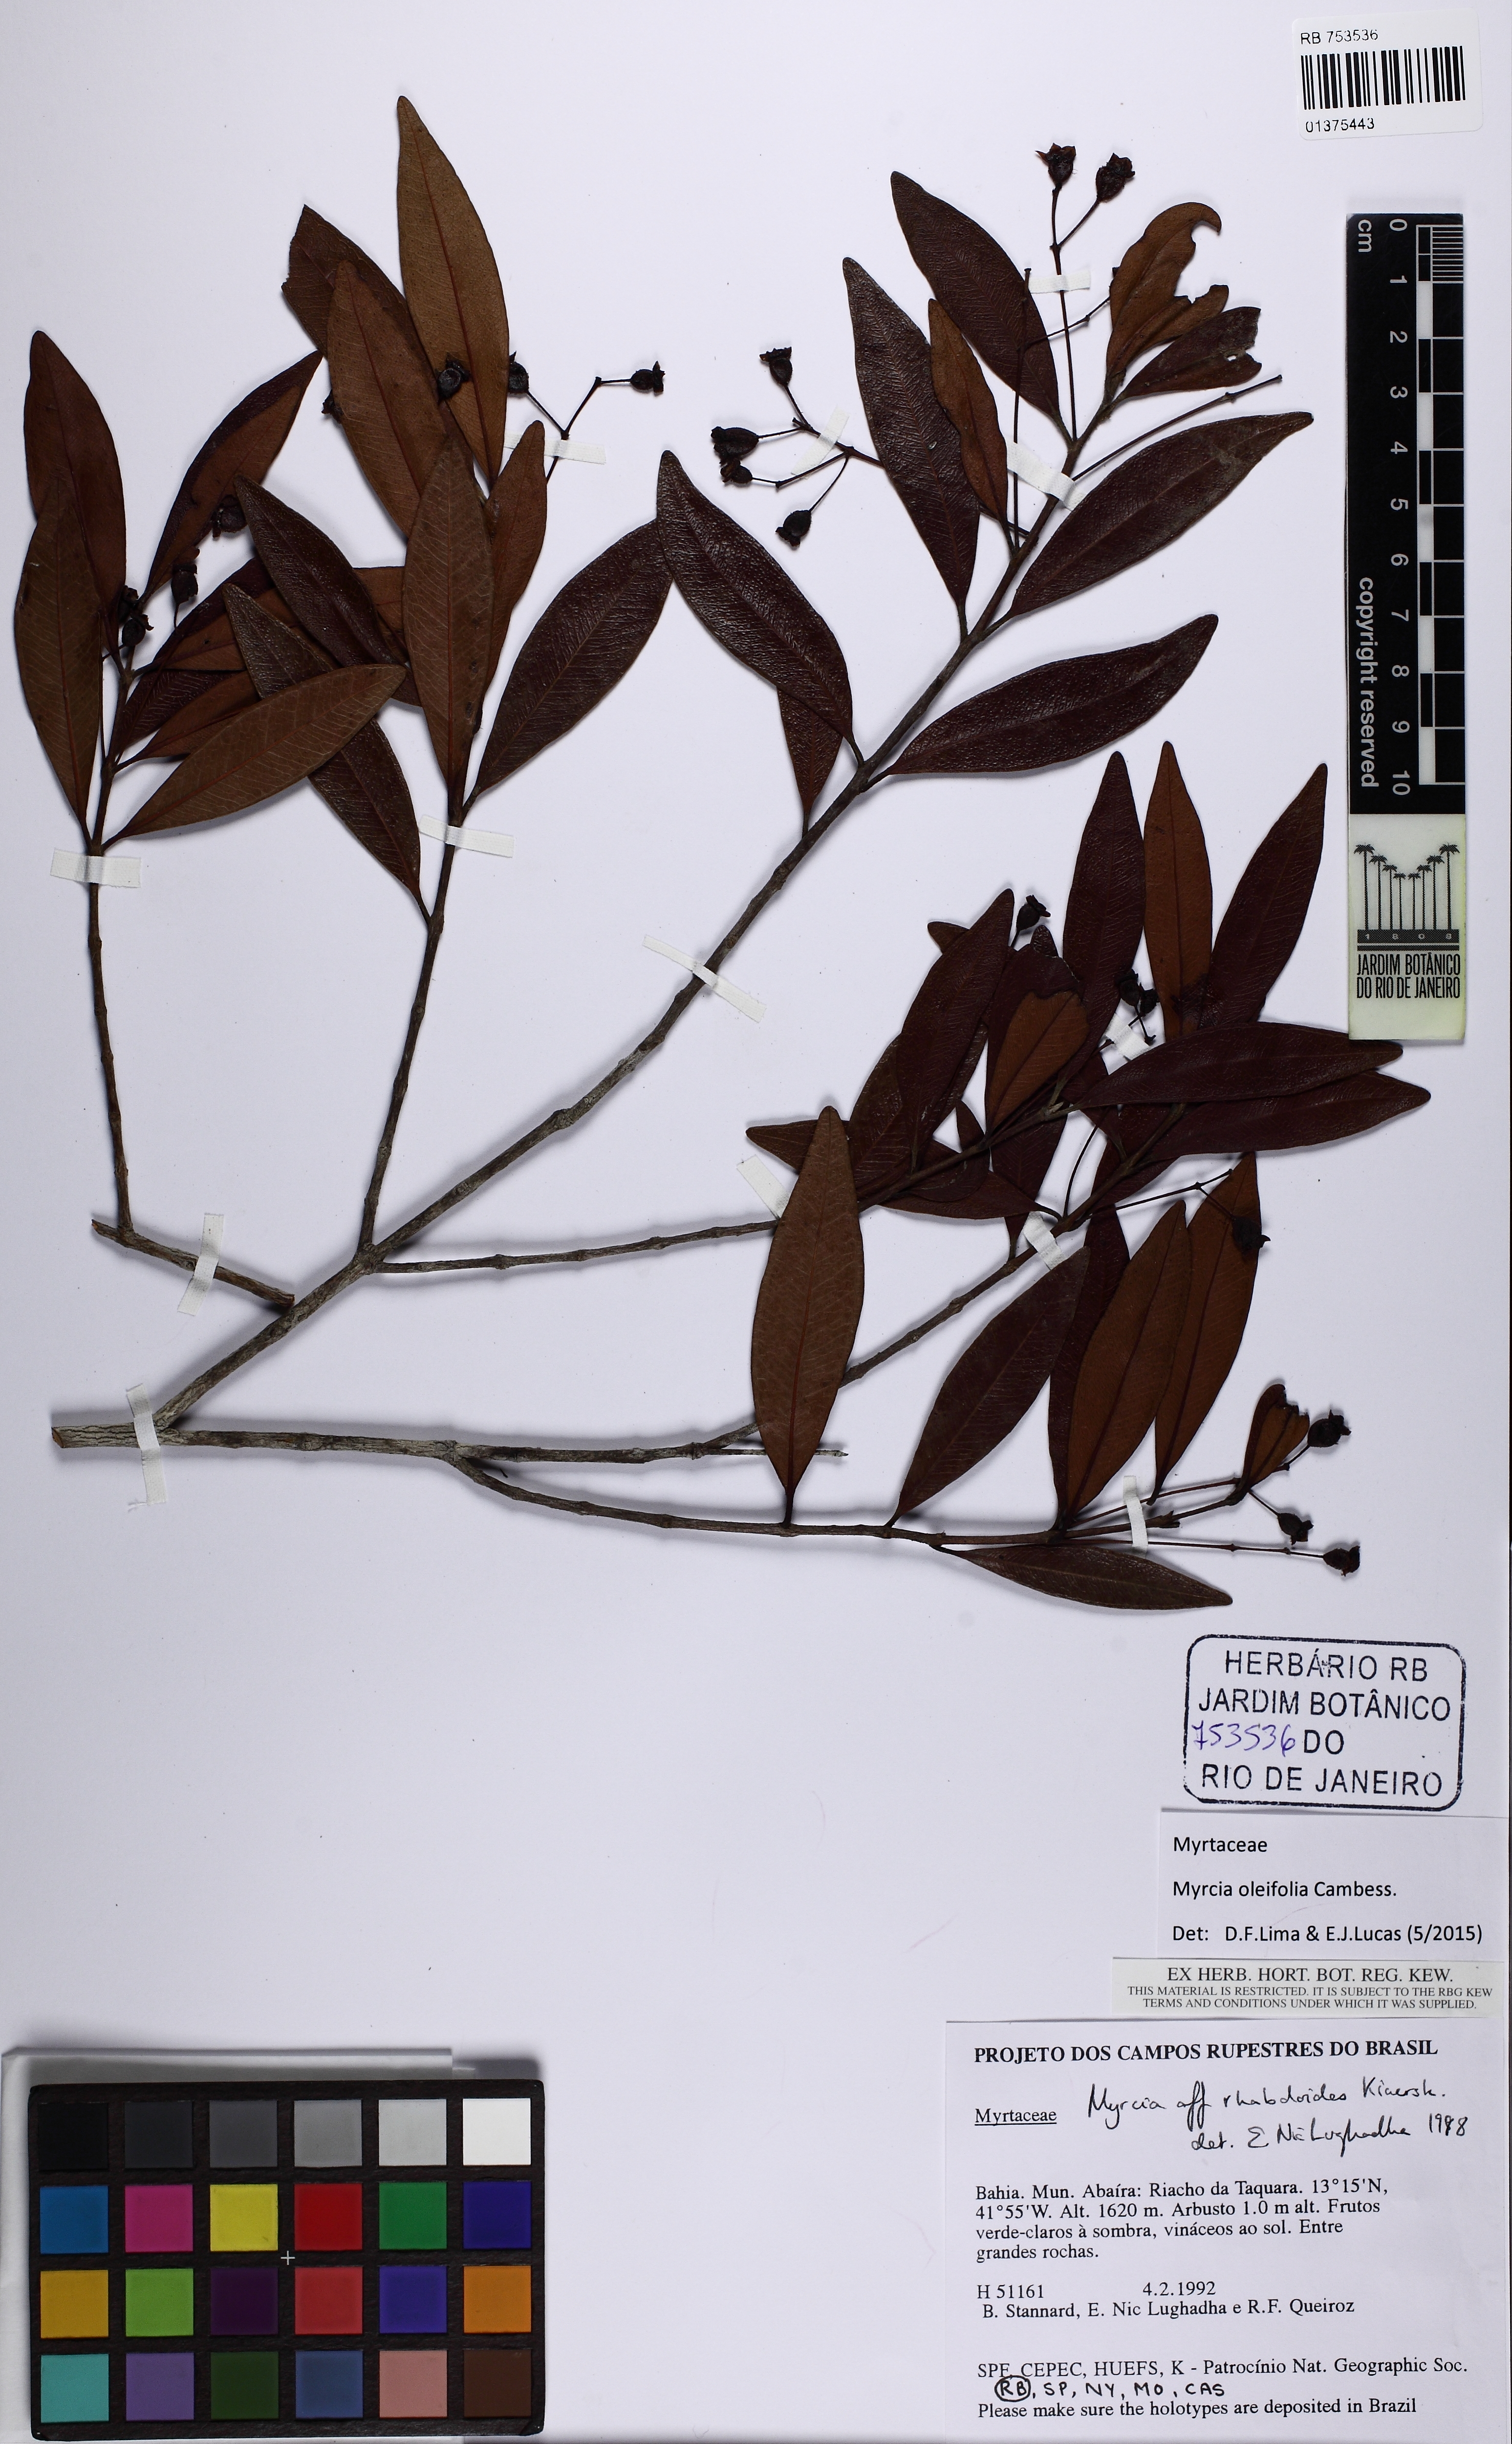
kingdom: Plantae
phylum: Tracheophyta
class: Magnoliopsida
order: Myrtales
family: Myrtaceae
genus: Myrcia
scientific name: Myrcia venulosa
